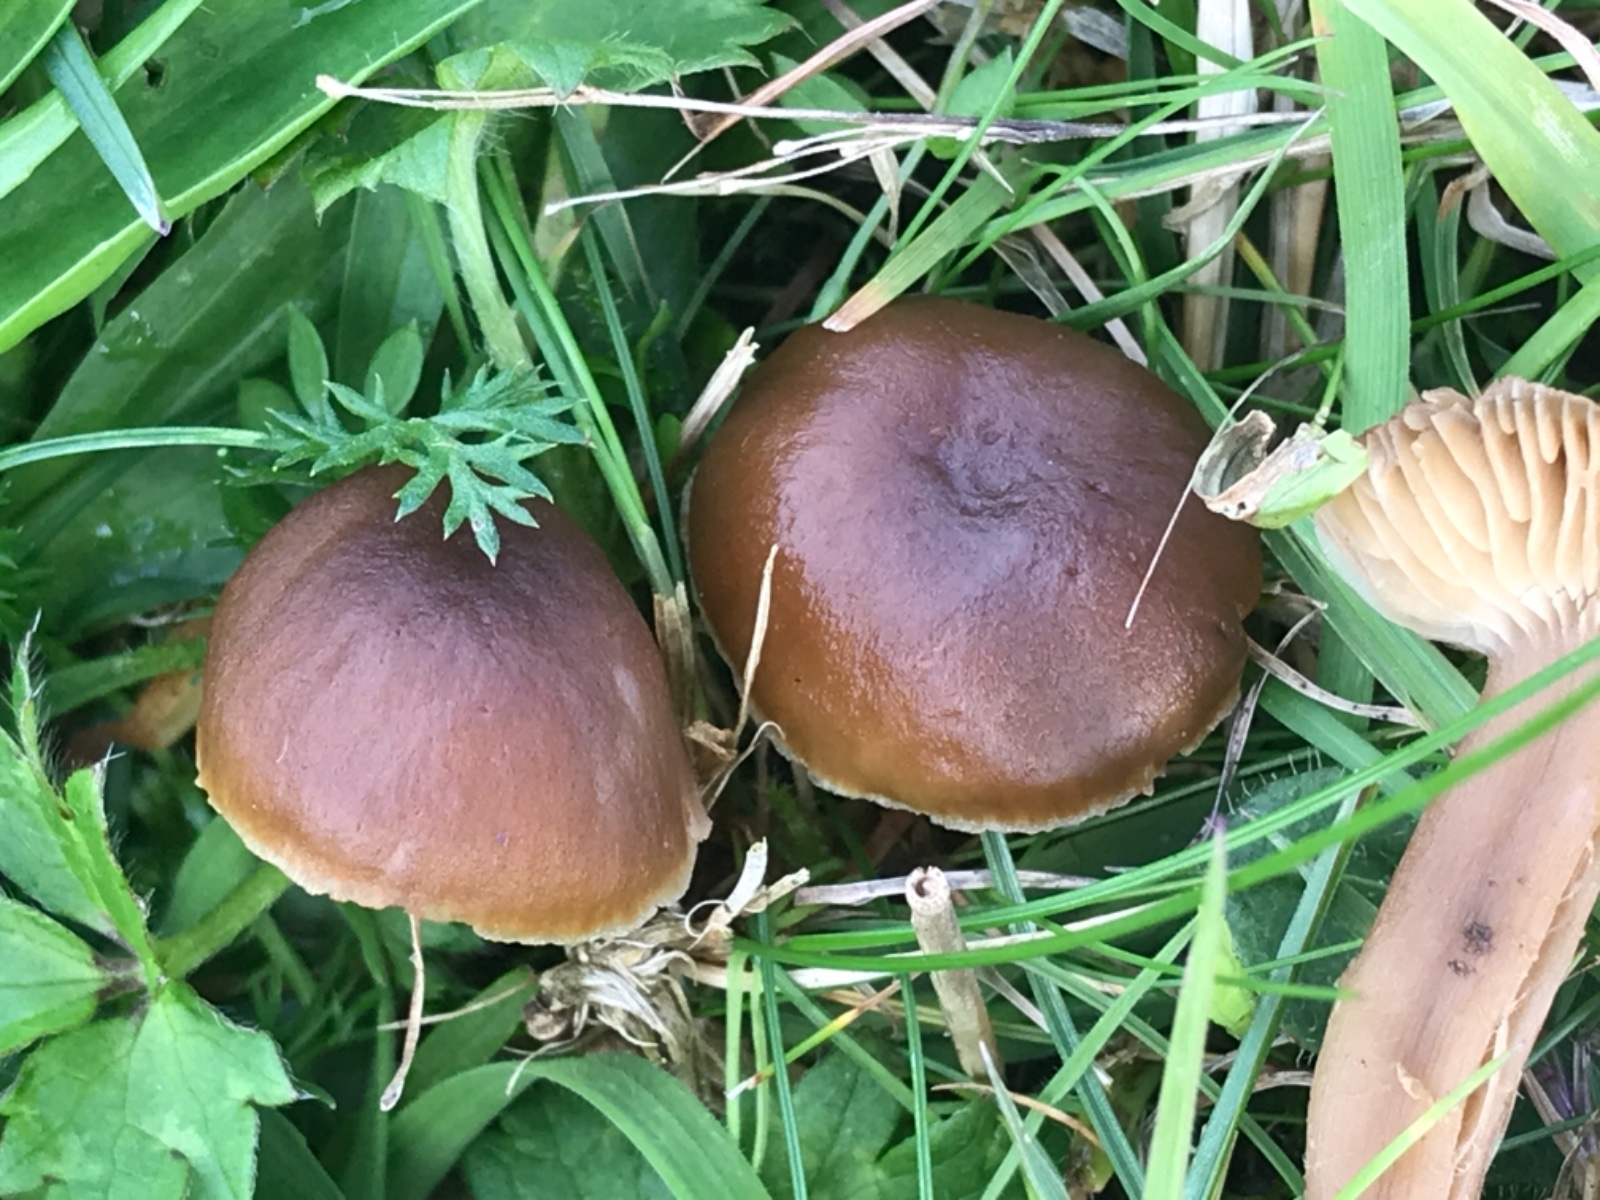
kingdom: Fungi
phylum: Basidiomycota
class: Agaricomycetes
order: Agaricales
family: Clavariaceae
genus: Camarophyllopsis
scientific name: Camarophyllopsis schulzeri
